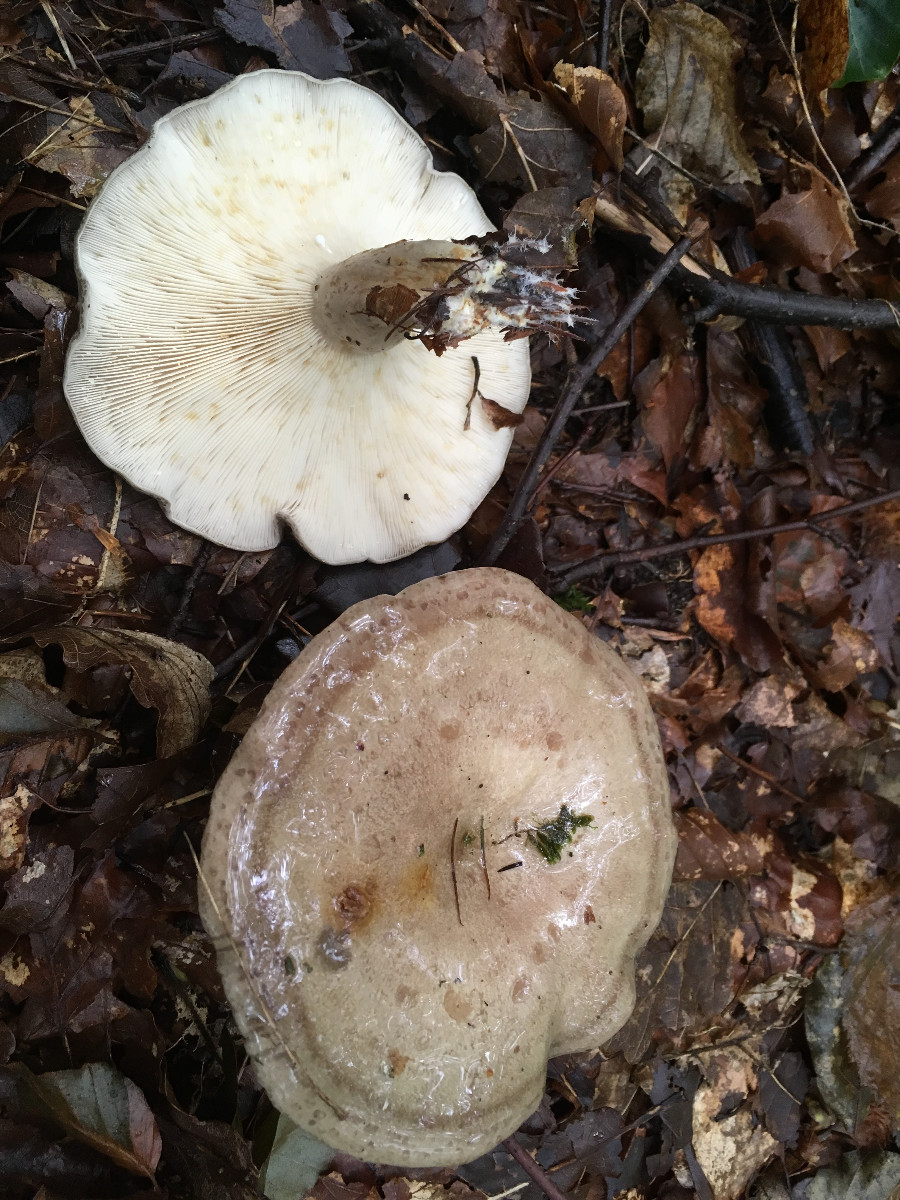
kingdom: Fungi
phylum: Basidiomycota
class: Agaricomycetes
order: Russulales
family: Russulaceae
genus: Lactarius
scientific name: Lactarius blennius
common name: dråbeplettet mælkehat
